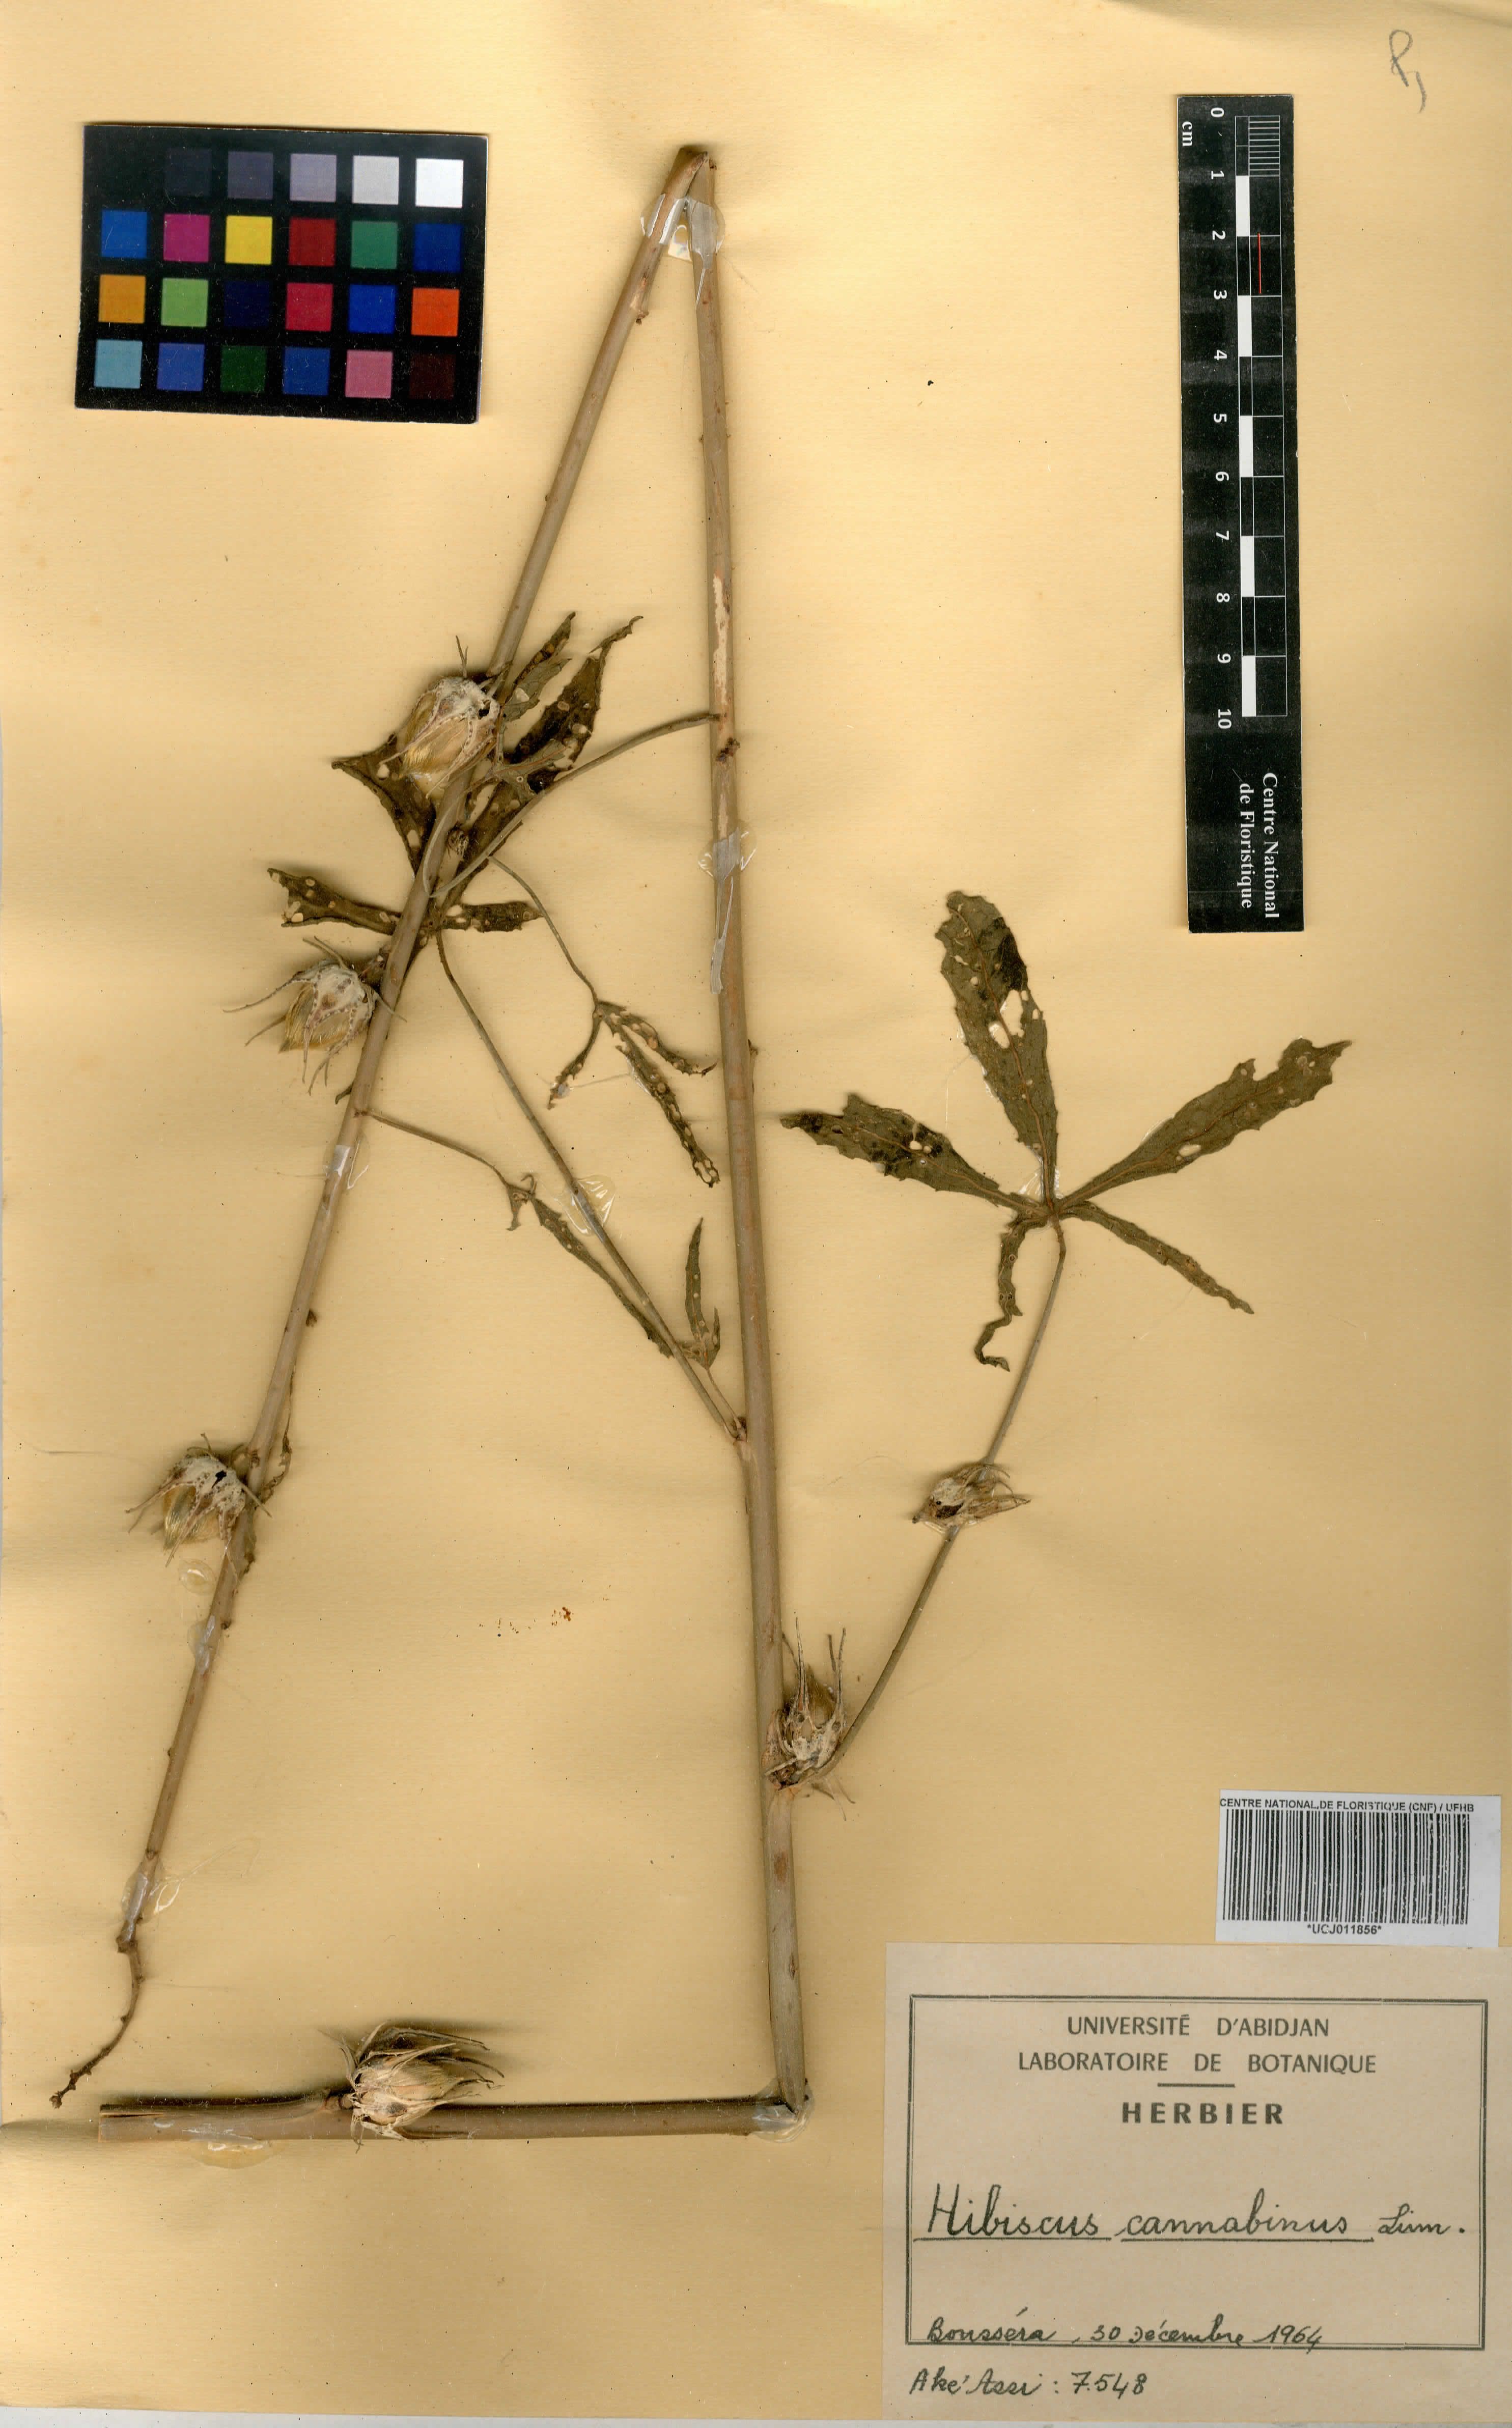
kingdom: Plantae
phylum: Tracheophyta
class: Magnoliopsida
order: Malvales
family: Malvaceae
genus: Hibiscus
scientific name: Hibiscus cannabinus
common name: Brown indianhemp
